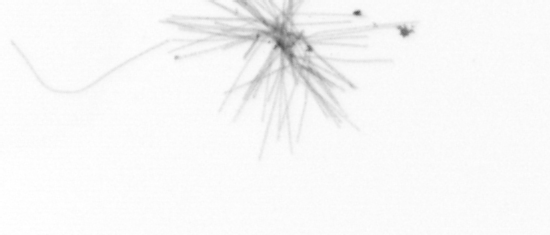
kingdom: Chromista
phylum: Ochrophyta
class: Bacillariophyceae
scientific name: Bacillariophyceae
